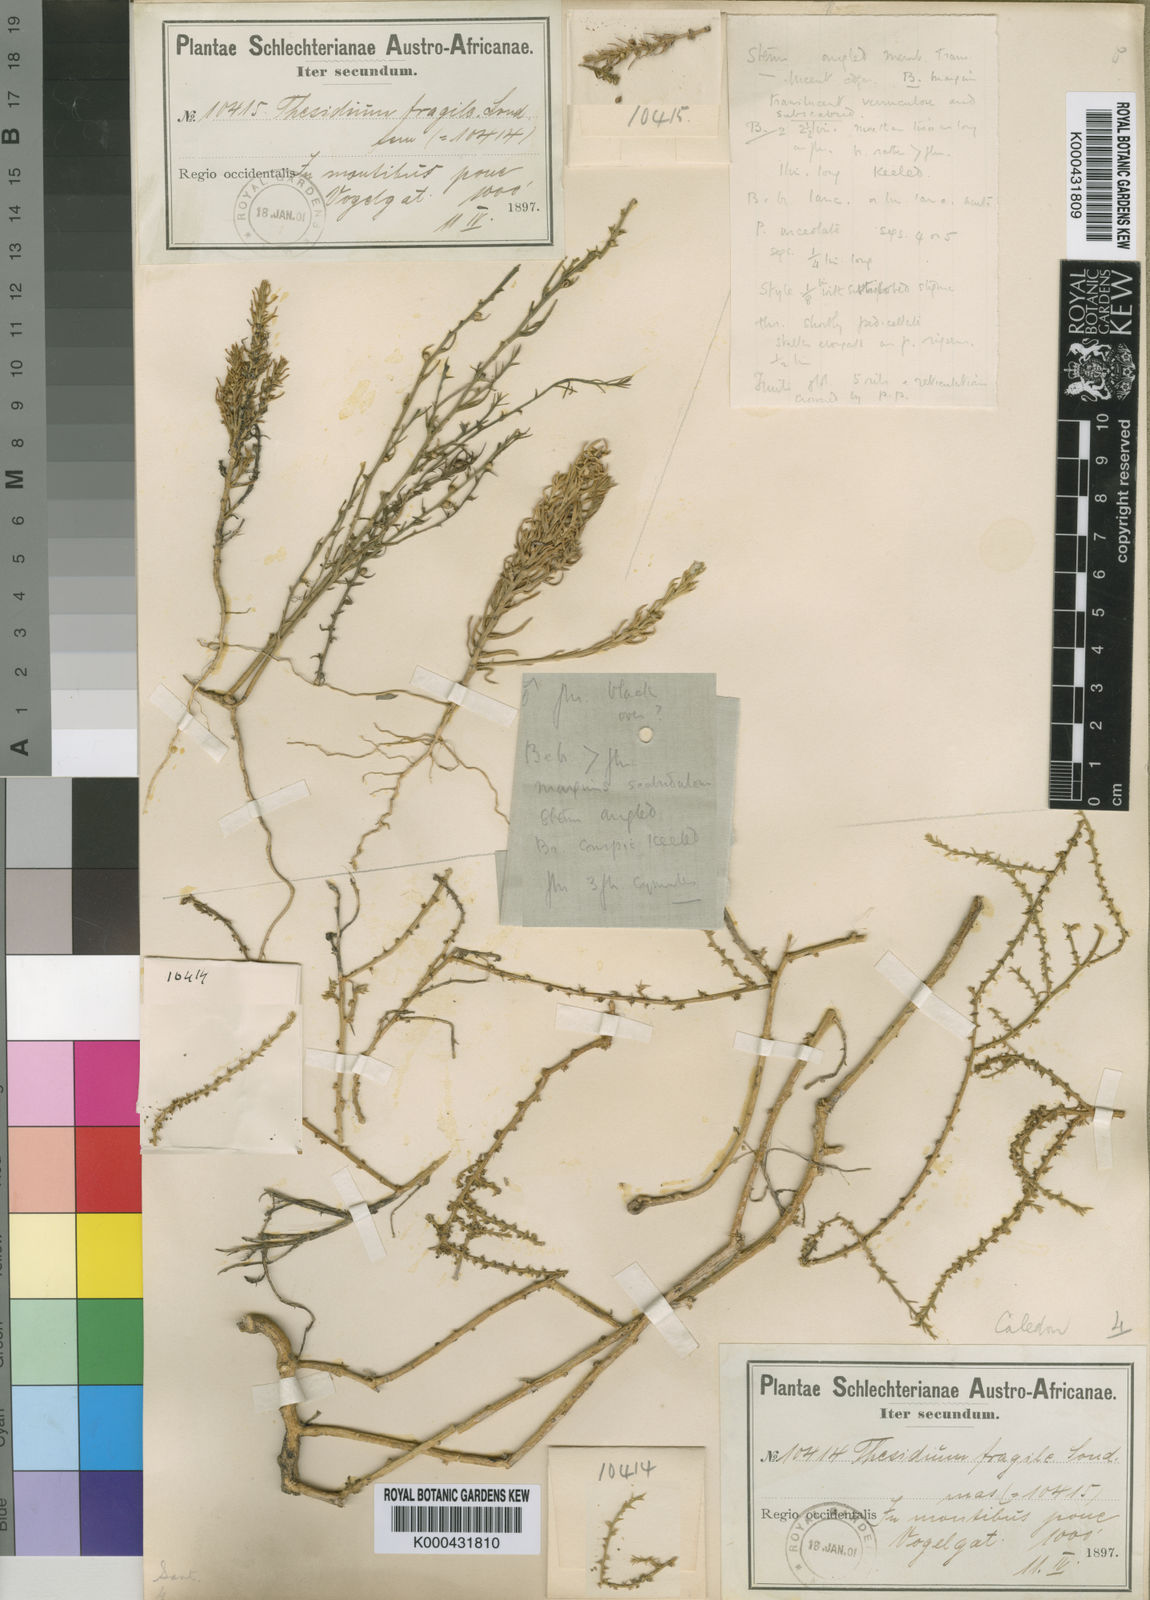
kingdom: Plantae
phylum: Tracheophyta
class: Magnoliopsida
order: Santalales
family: Thesiaceae
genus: Thesium
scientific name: Thesium minus
